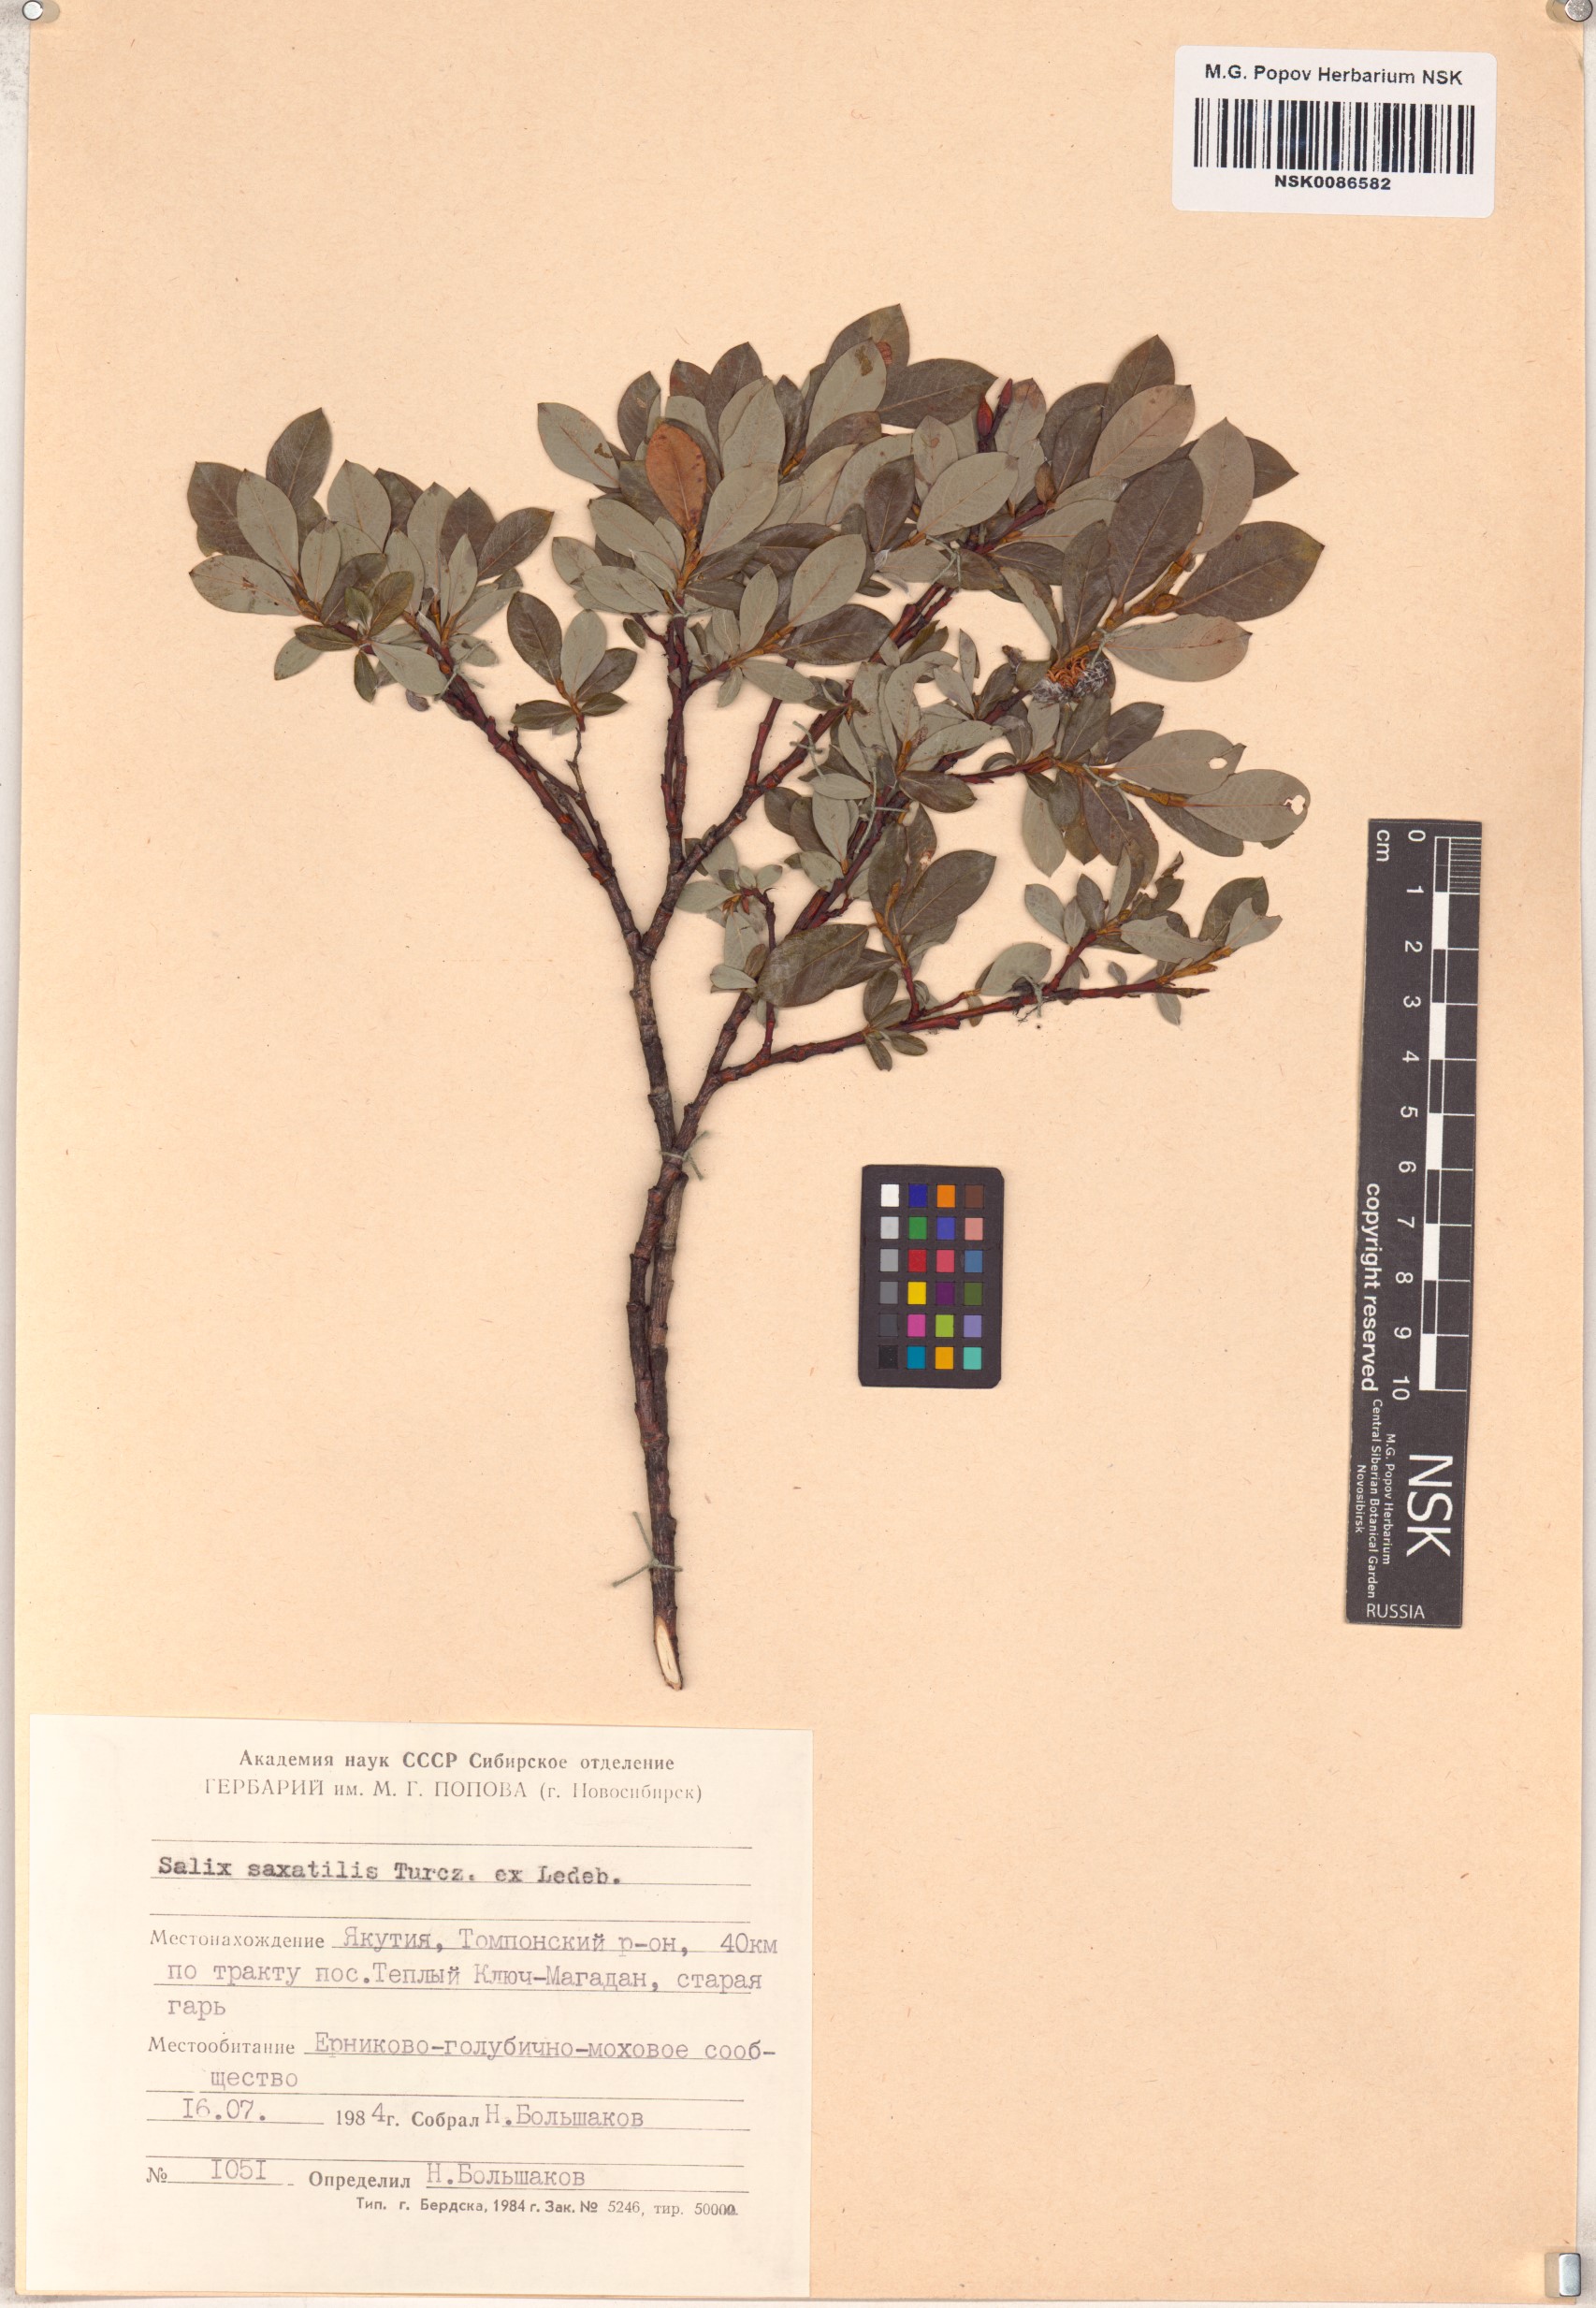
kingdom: Plantae
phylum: Tracheophyta
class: Magnoliopsida
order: Malpighiales
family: Salicaceae
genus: Salix
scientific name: Salix saxatilis
